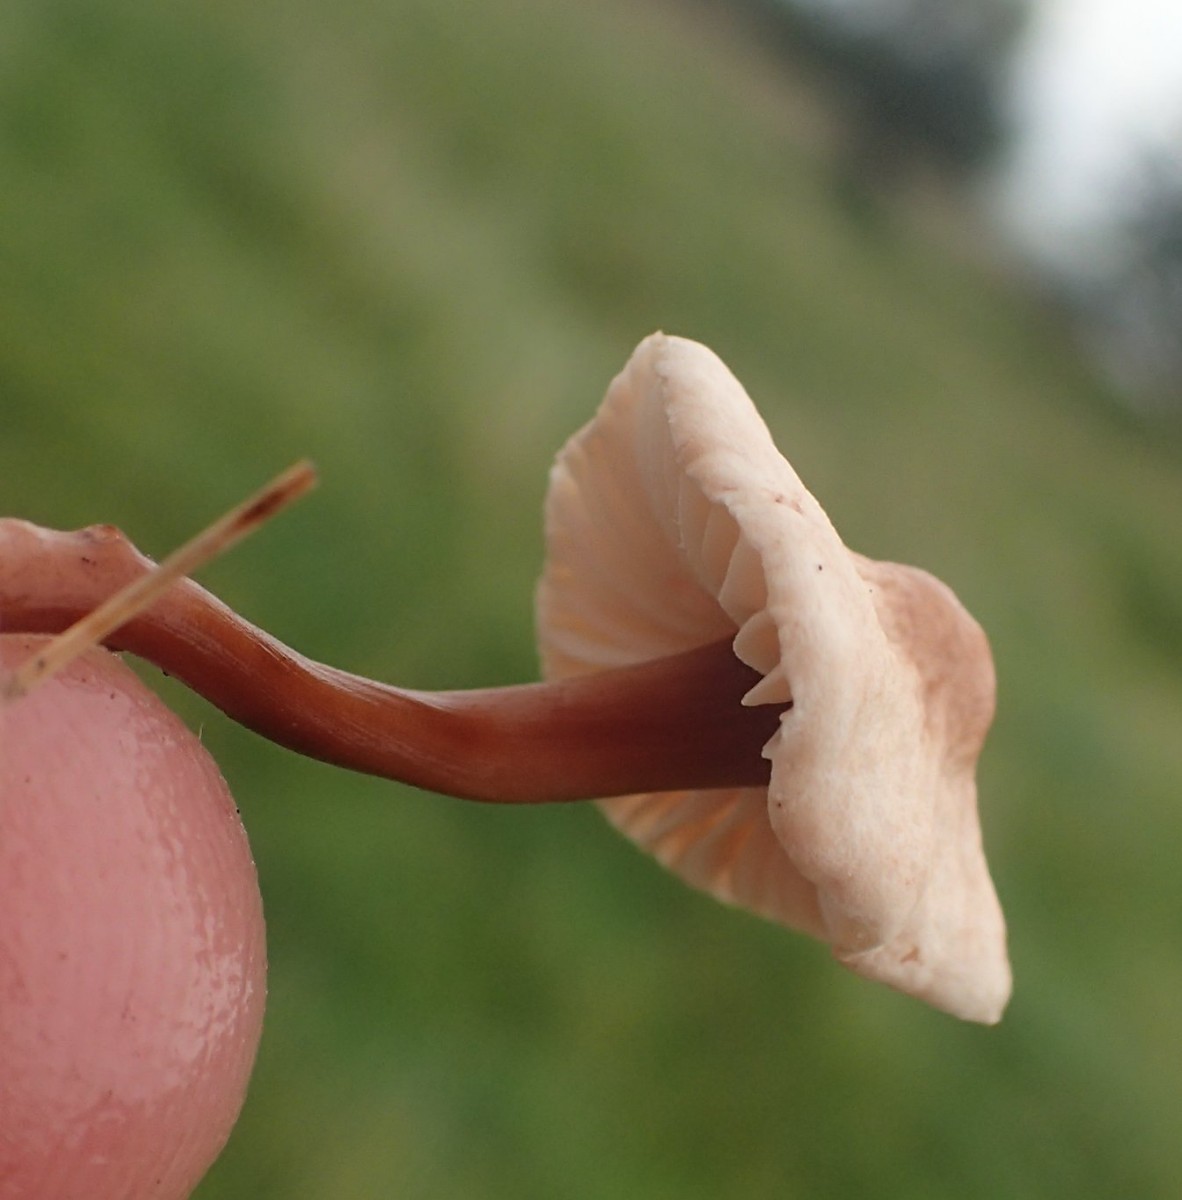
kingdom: Fungi
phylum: Basidiomycota
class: Agaricomycetes
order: Agaricales
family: Omphalotaceae
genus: Mycetinis
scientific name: Mycetinis scorodonius
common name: lille løghat
